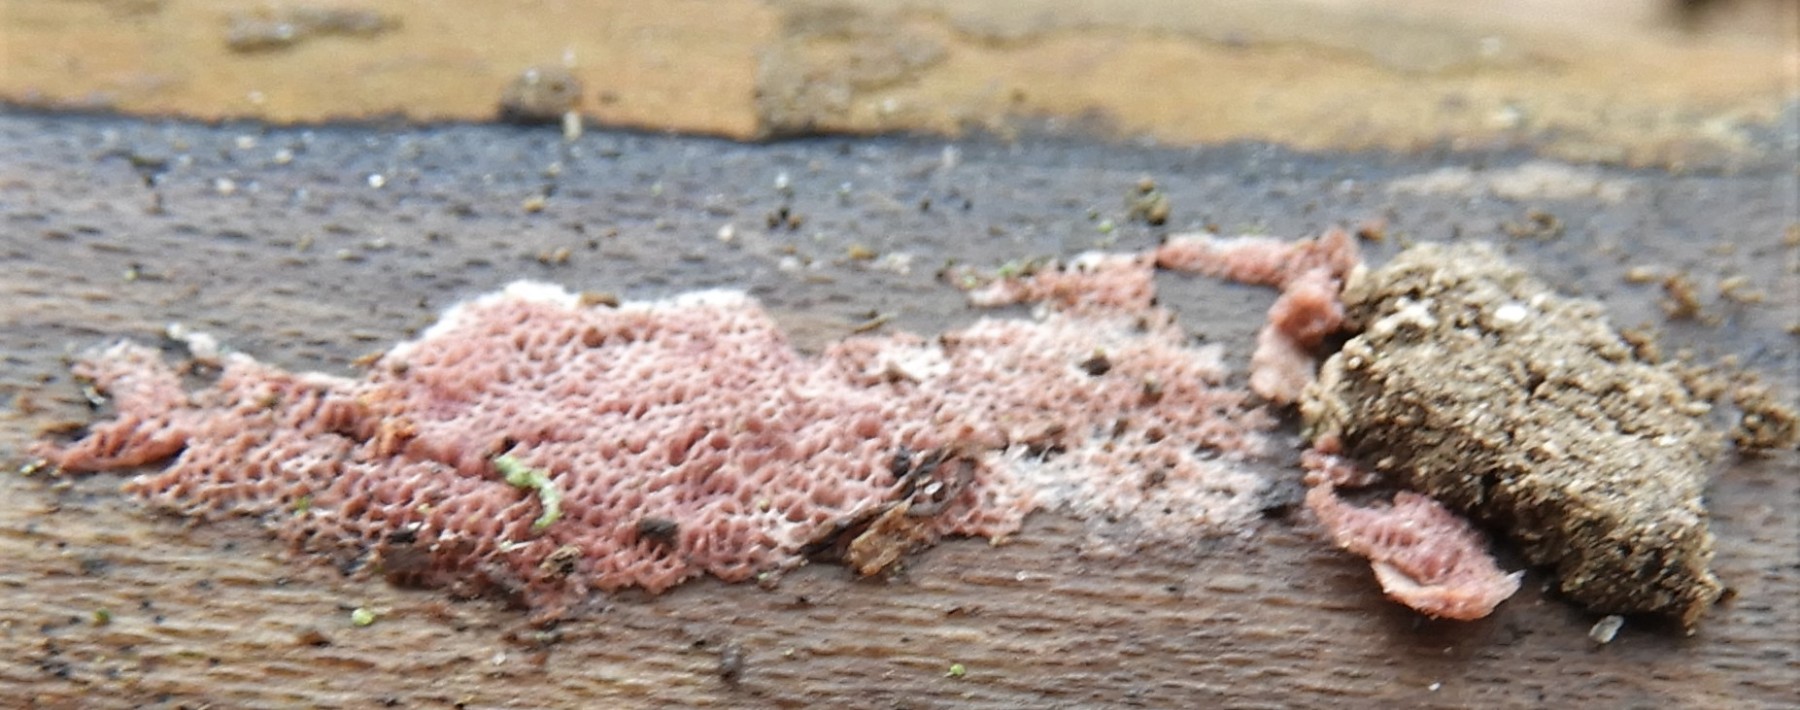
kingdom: Fungi
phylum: Basidiomycota
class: Agaricomycetes
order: Polyporales
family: Irpicaceae
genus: Ceriporia
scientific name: Ceriporia
